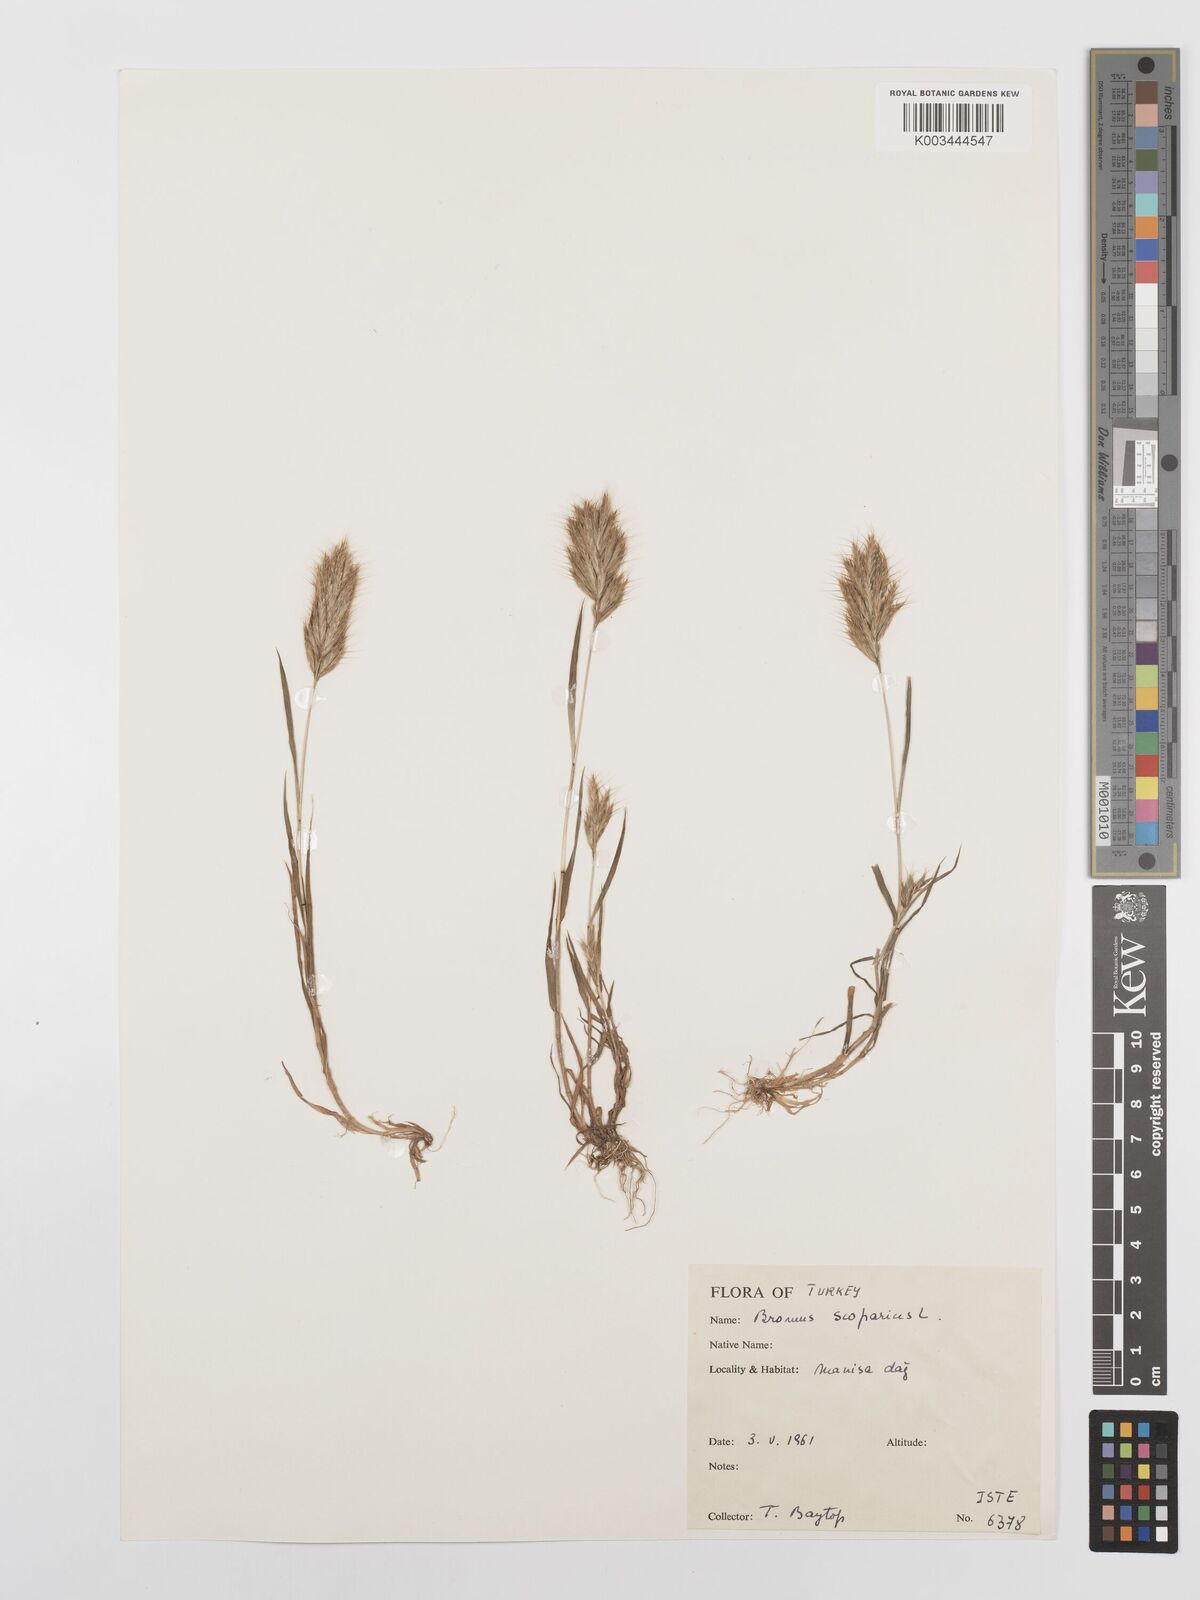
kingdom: Plantae
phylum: Tracheophyta
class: Liliopsida
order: Poales
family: Poaceae
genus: Bromus
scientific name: Bromus scoparius
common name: Broom brome
